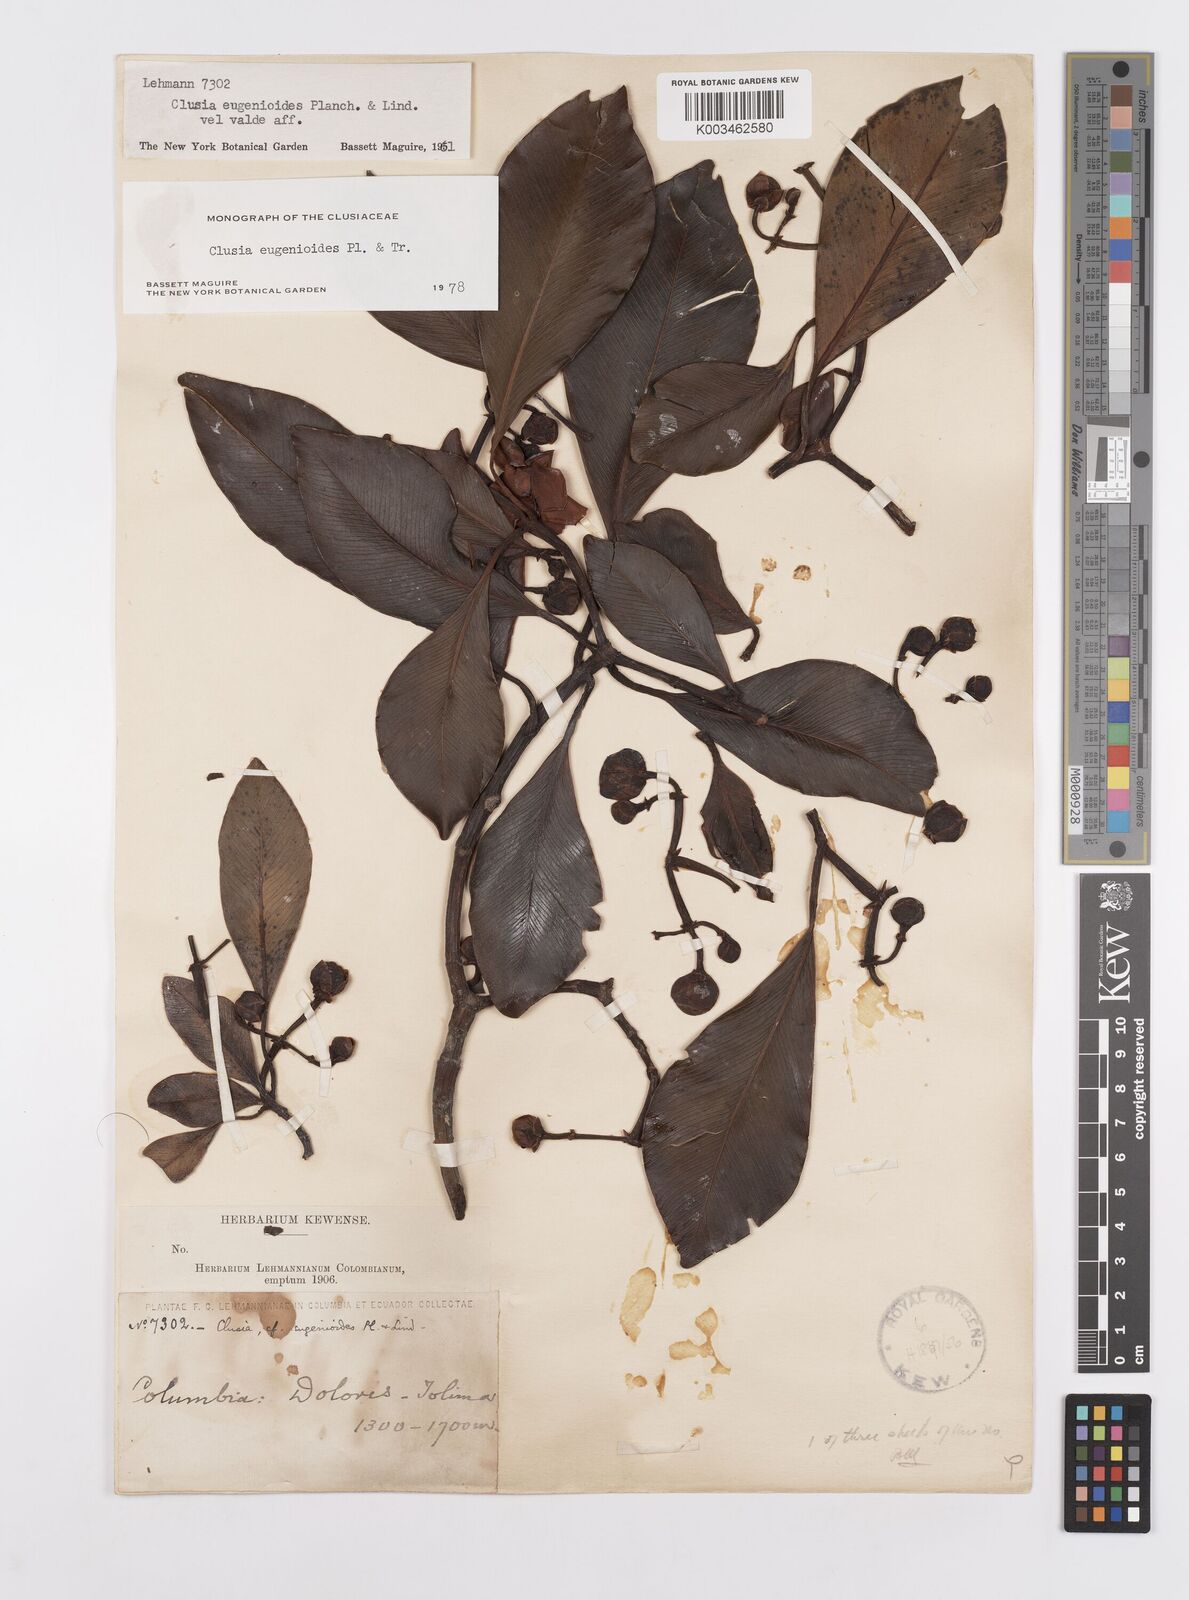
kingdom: Plantae
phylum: Tracheophyta
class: Magnoliopsida
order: Malpighiales
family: Clusiaceae
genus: Clusia
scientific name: Clusia eugenioides
